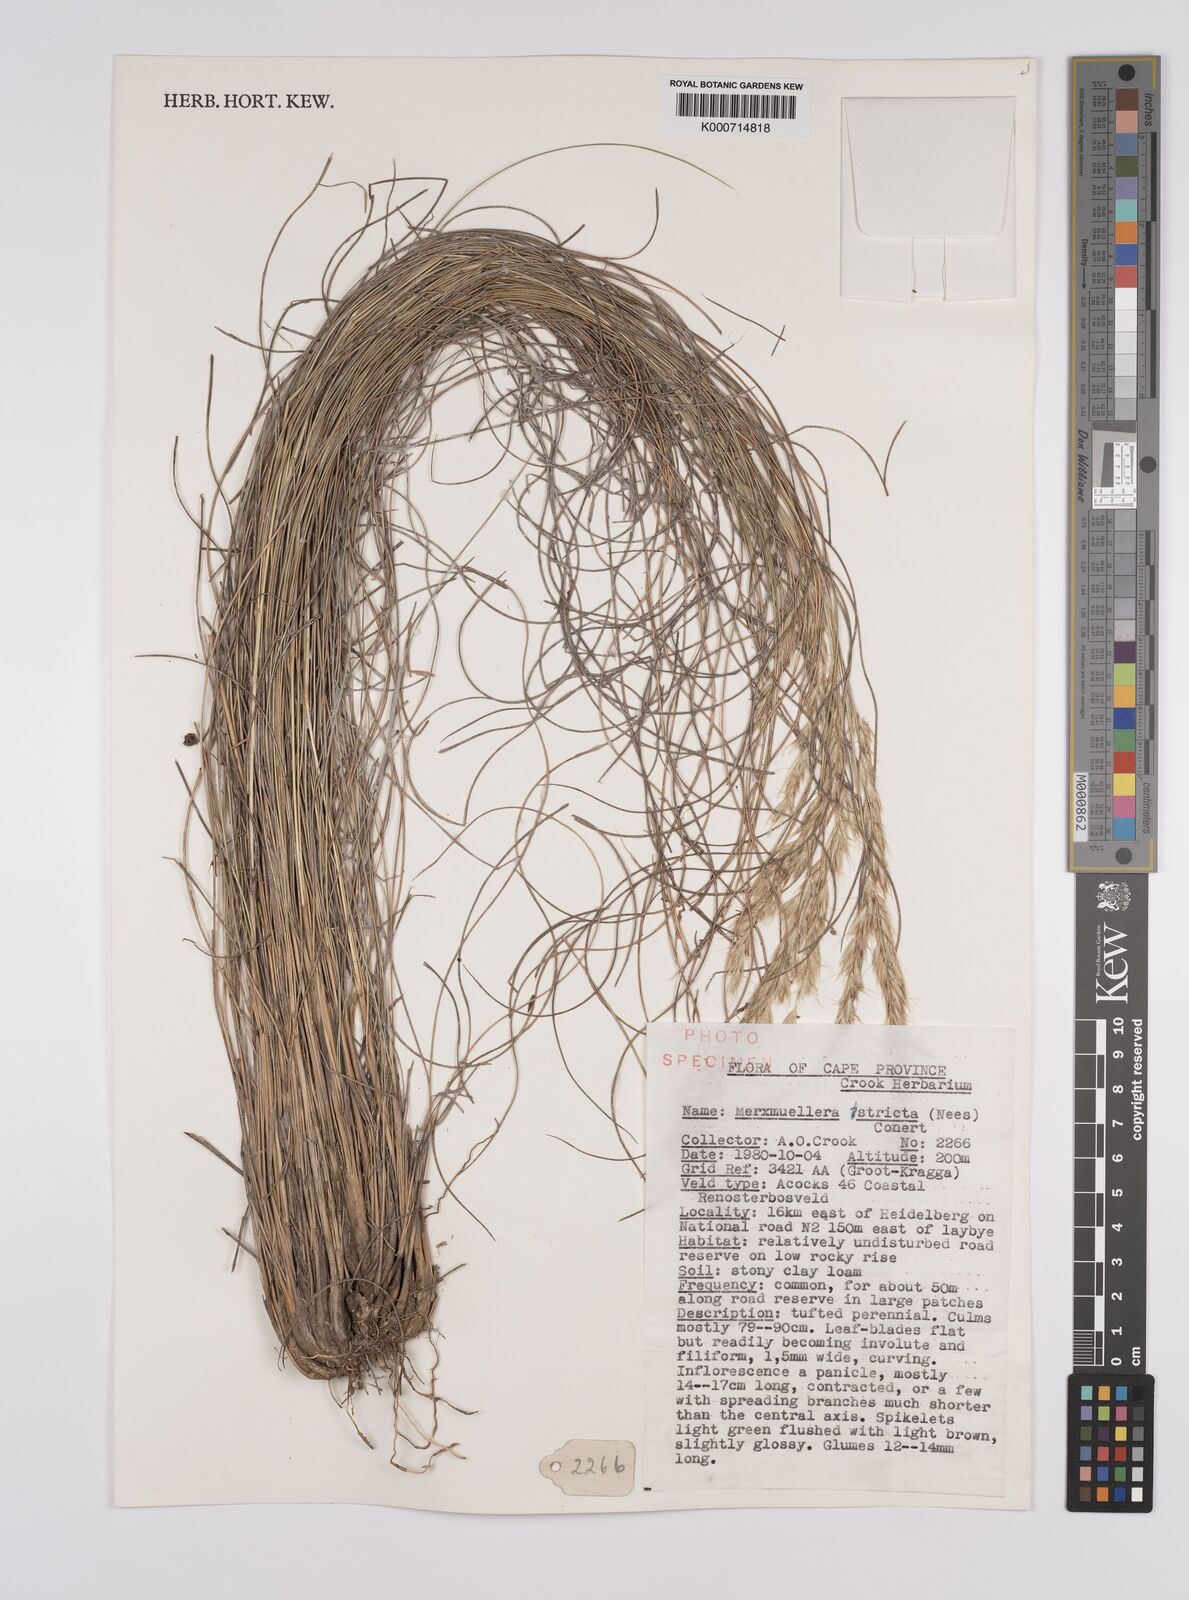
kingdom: Plantae
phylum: Tracheophyta
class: Liliopsida
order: Poales
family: Poaceae
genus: Rytidosperma
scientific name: Rytidosperma
